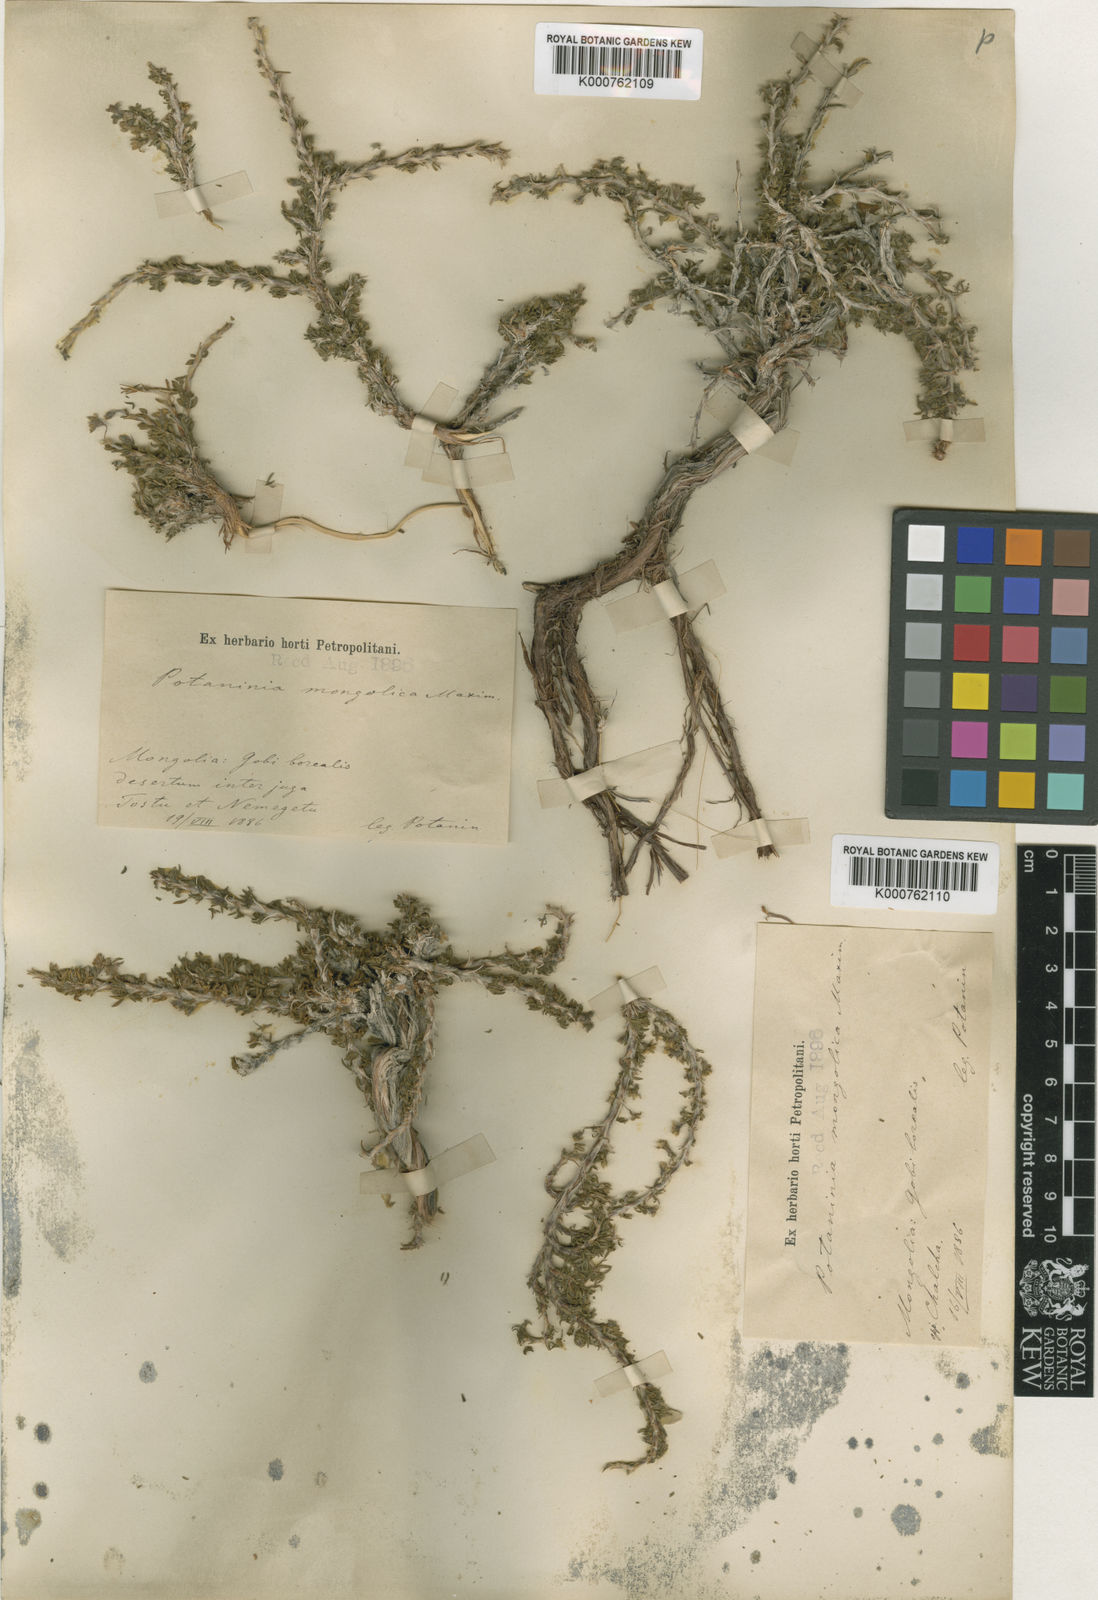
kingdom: Plantae
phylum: Tracheophyta
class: Magnoliopsida
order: Rosales
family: Rosaceae
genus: Potaninia
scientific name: Potaninia mongolica
